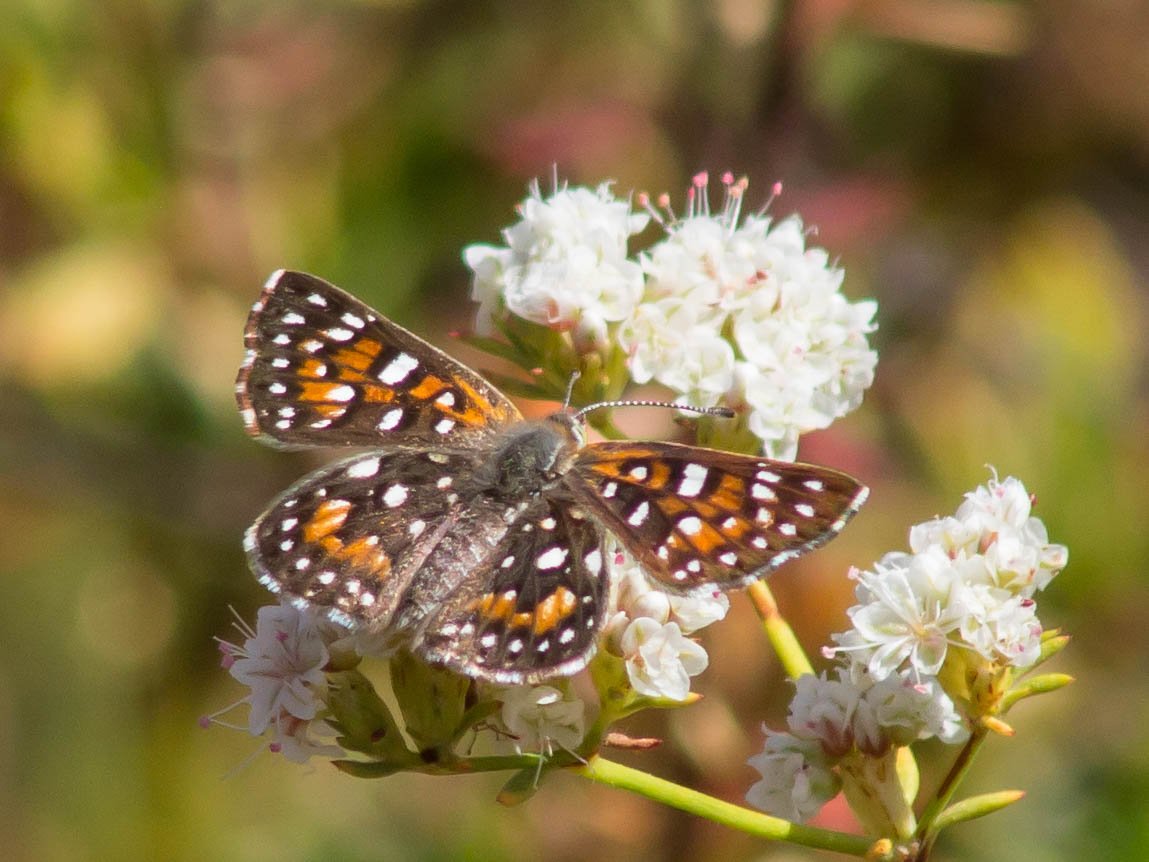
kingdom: Animalia
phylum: Arthropoda
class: Insecta
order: Lepidoptera
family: Riodinidae
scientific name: Riodinidae
